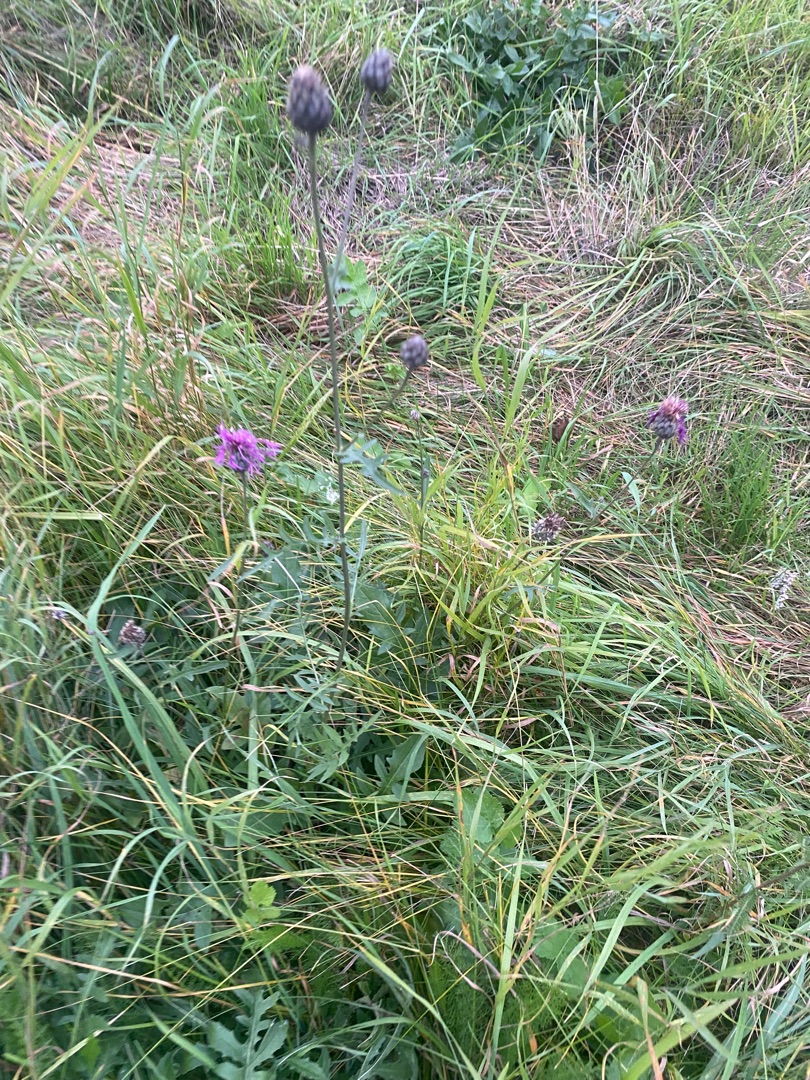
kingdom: Plantae
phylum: Tracheophyta
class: Magnoliopsida
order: Asterales
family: Asteraceae
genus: Centaurea
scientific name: Centaurea scabiosa
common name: Stor knopurt
